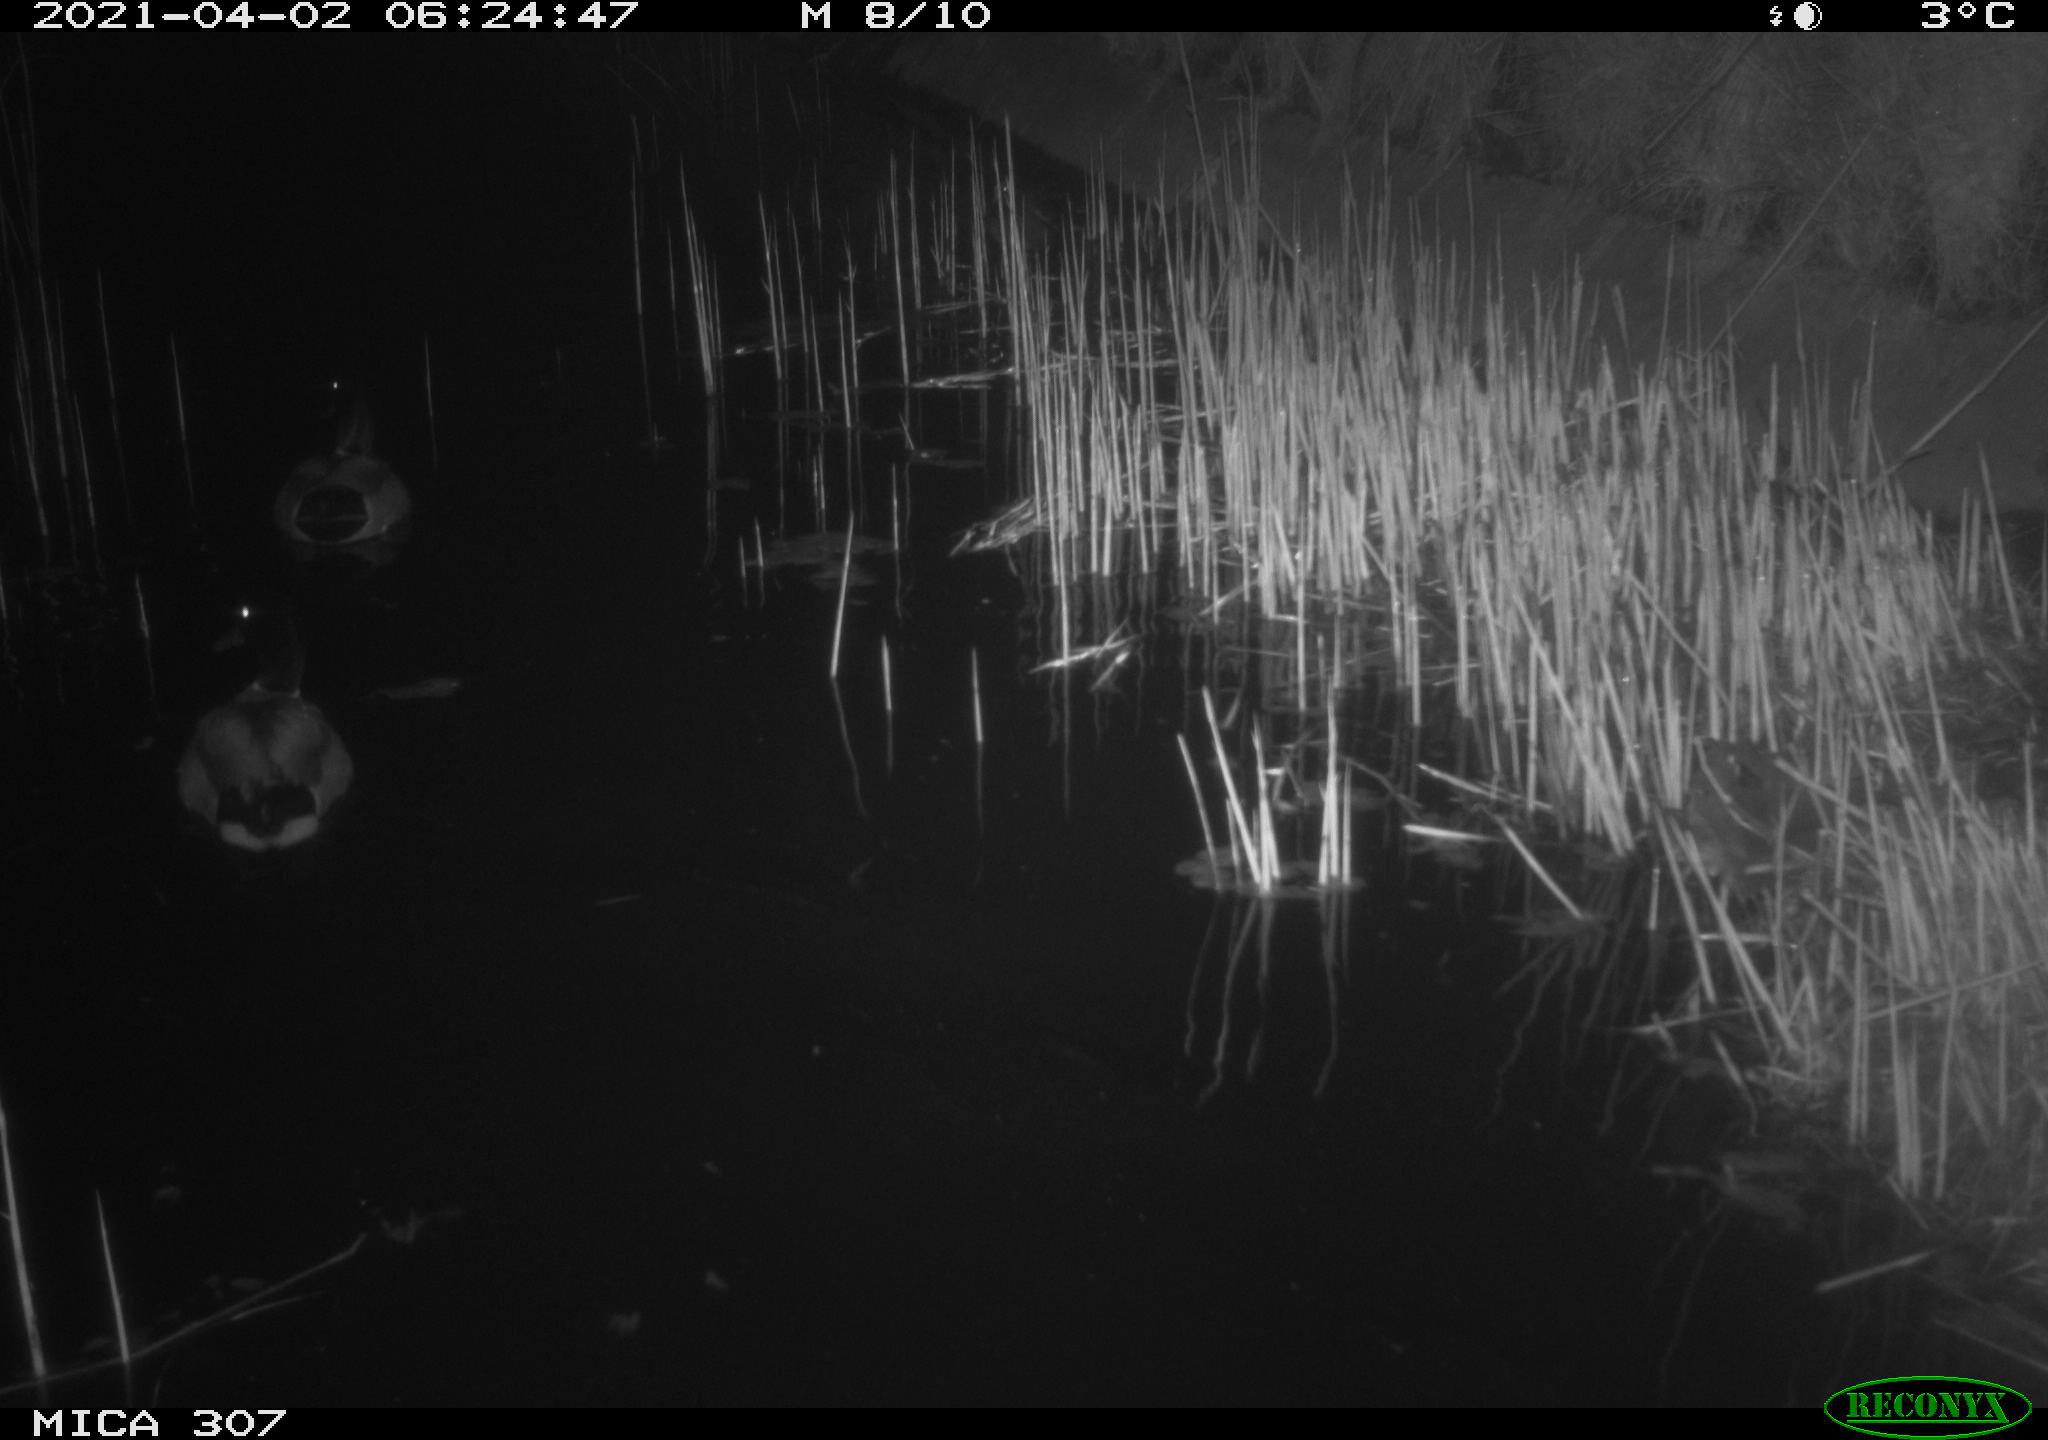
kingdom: Animalia
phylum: Chordata
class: Aves
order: Anseriformes
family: Anatidae
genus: Anas
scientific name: Anas platyrhynchos
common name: Mallard
